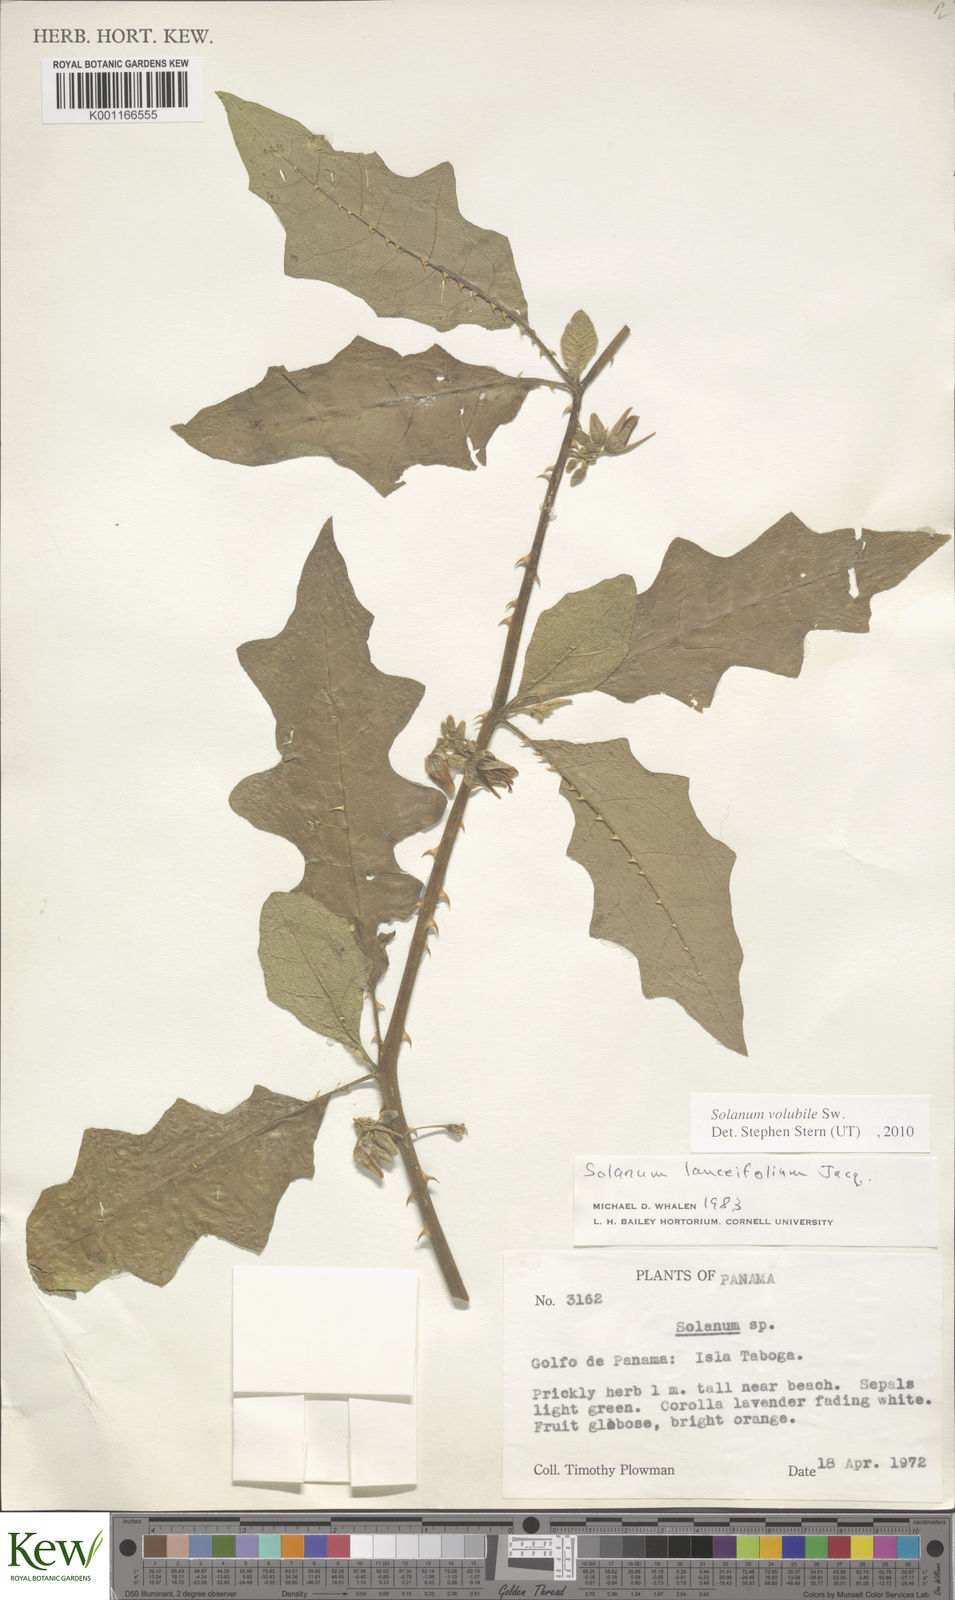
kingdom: Plantae
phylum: Tracheophyta
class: Magnoliopsida
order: Solanales
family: Solanaceae
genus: Solanum
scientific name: Solanum volubile
